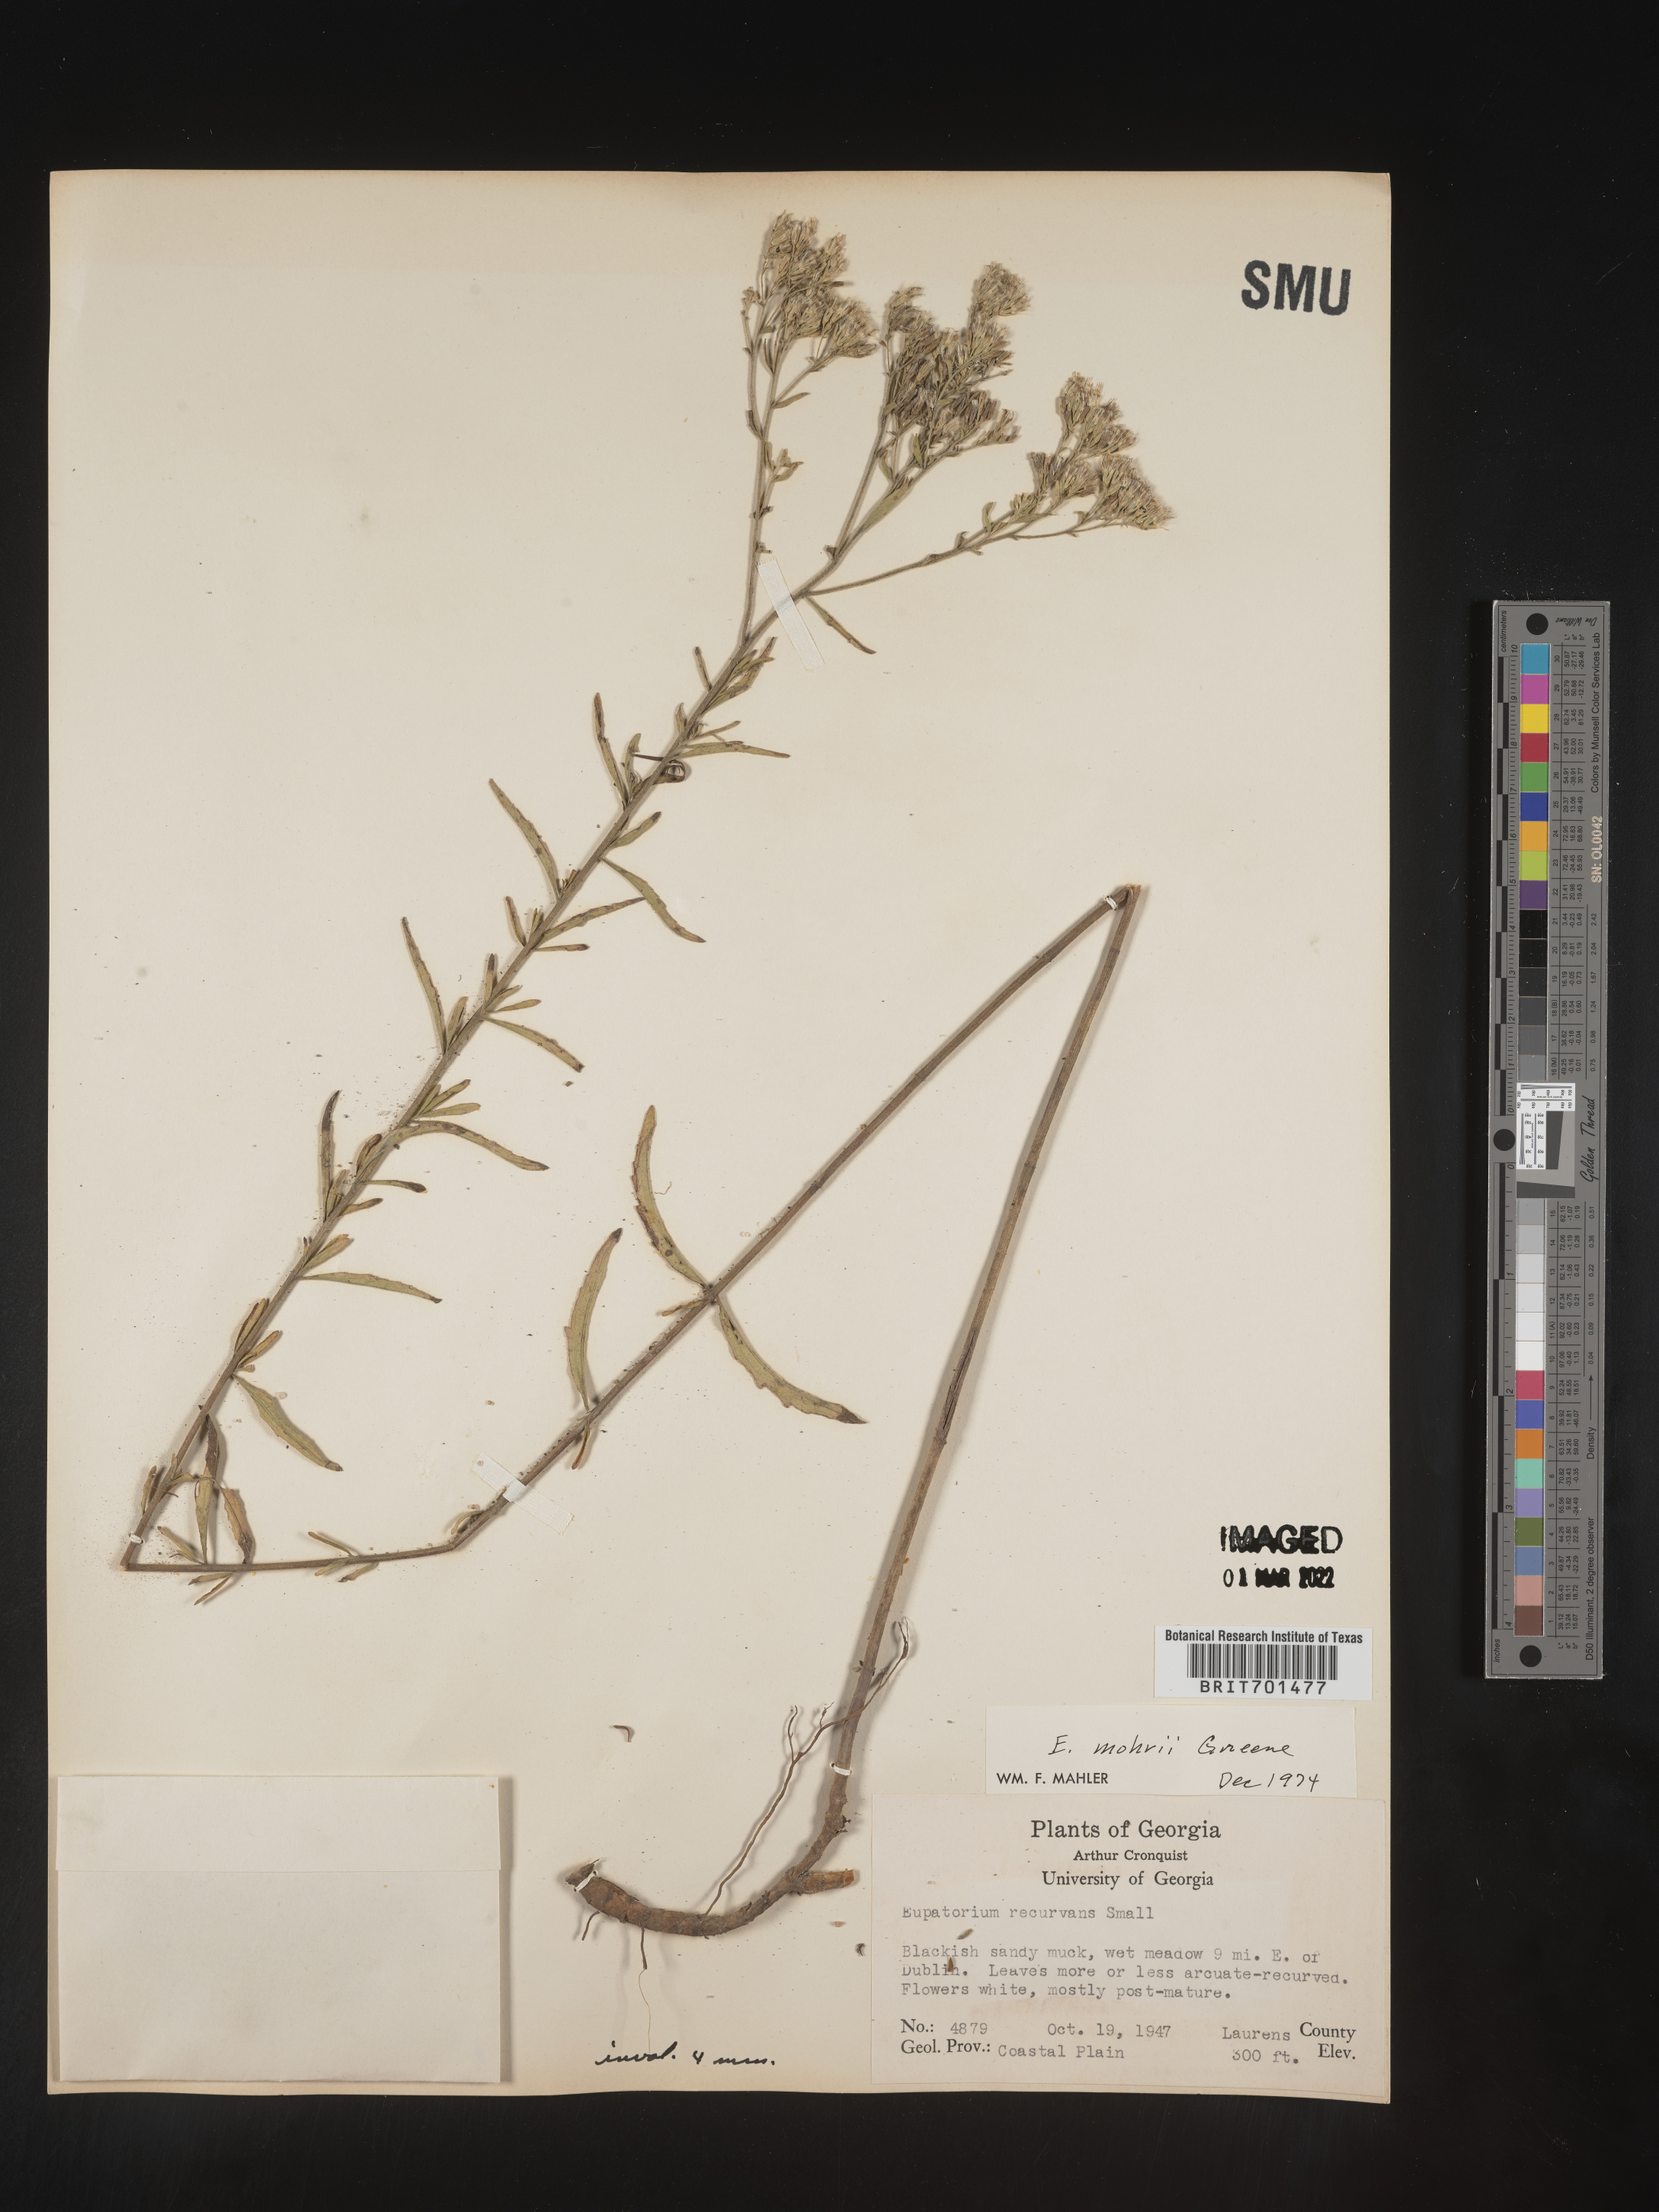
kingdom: Plantae
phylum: Tracheophyta
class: Magnoliopsida
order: Asterales
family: Asteraceae
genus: Eupatorium
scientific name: Eupatorium mohrii
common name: Mohr's thoroughwort
